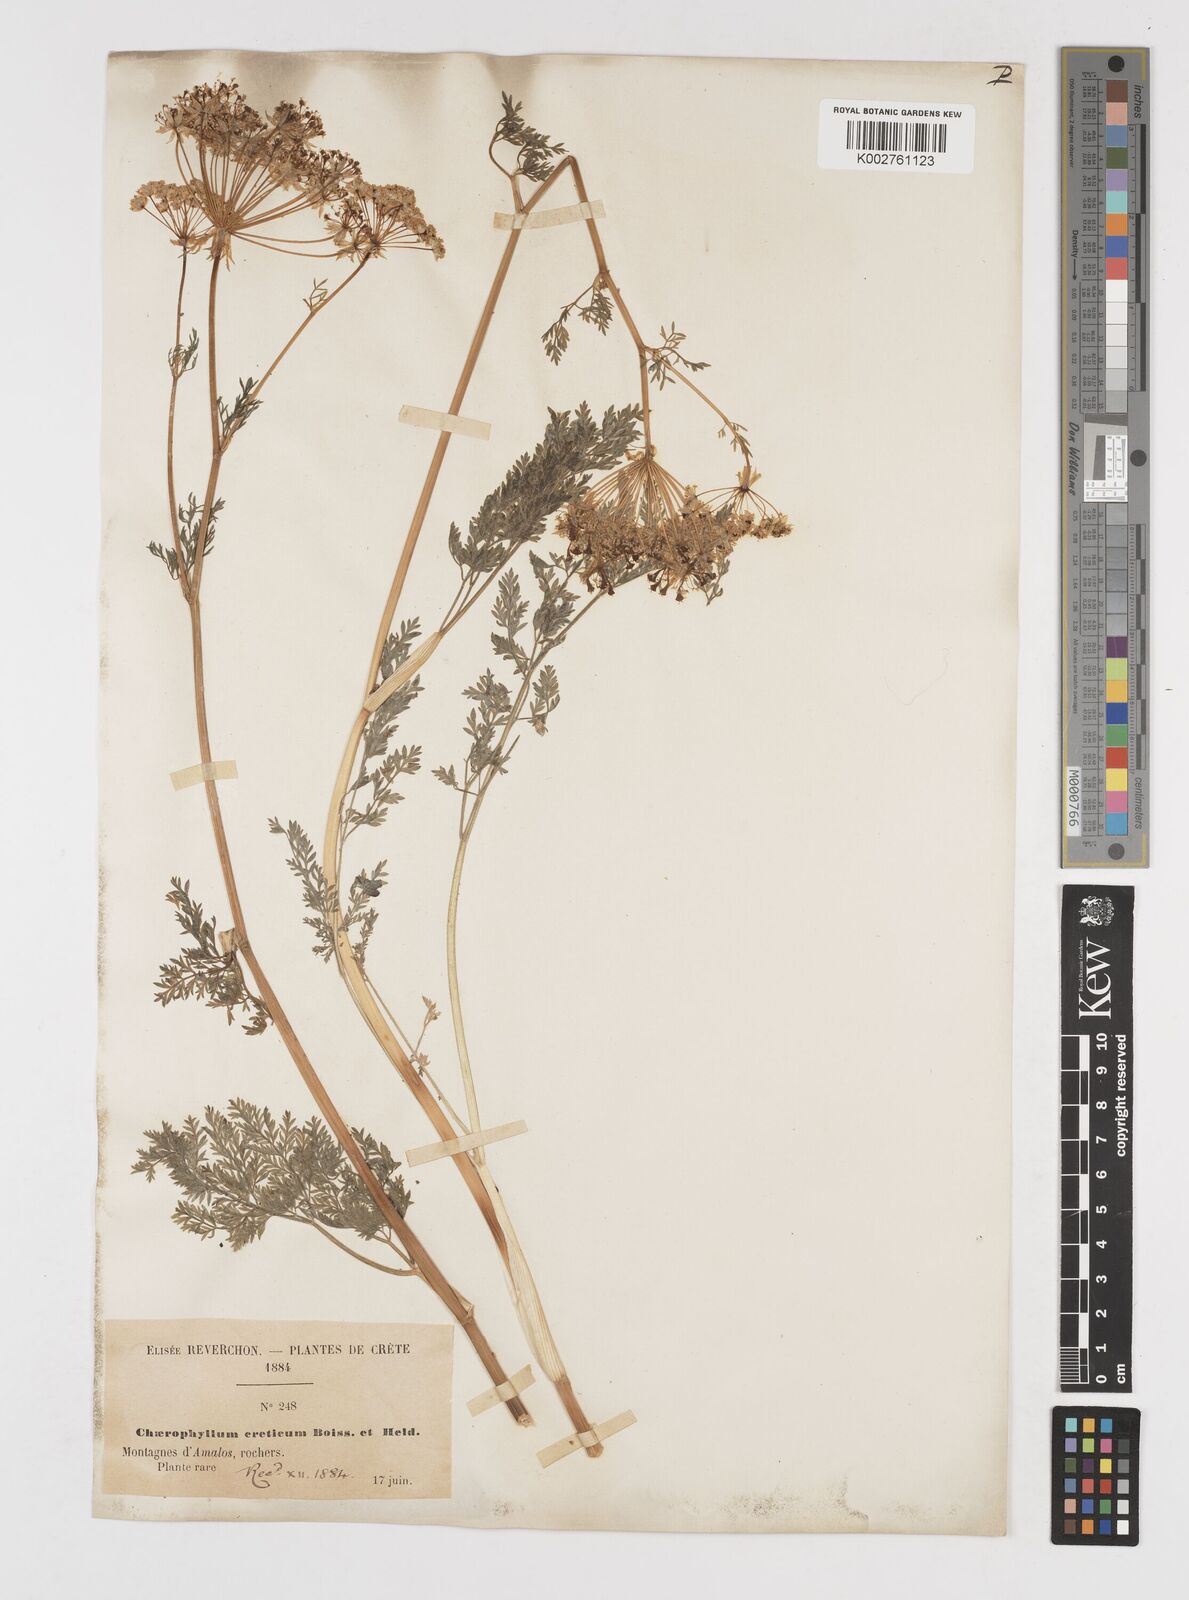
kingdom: Plantae
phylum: Tracheophyta
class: Magnoliopsida
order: Apiales
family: Apiaceae
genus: Chaerophyllum
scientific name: Chaerophyllum creticum
